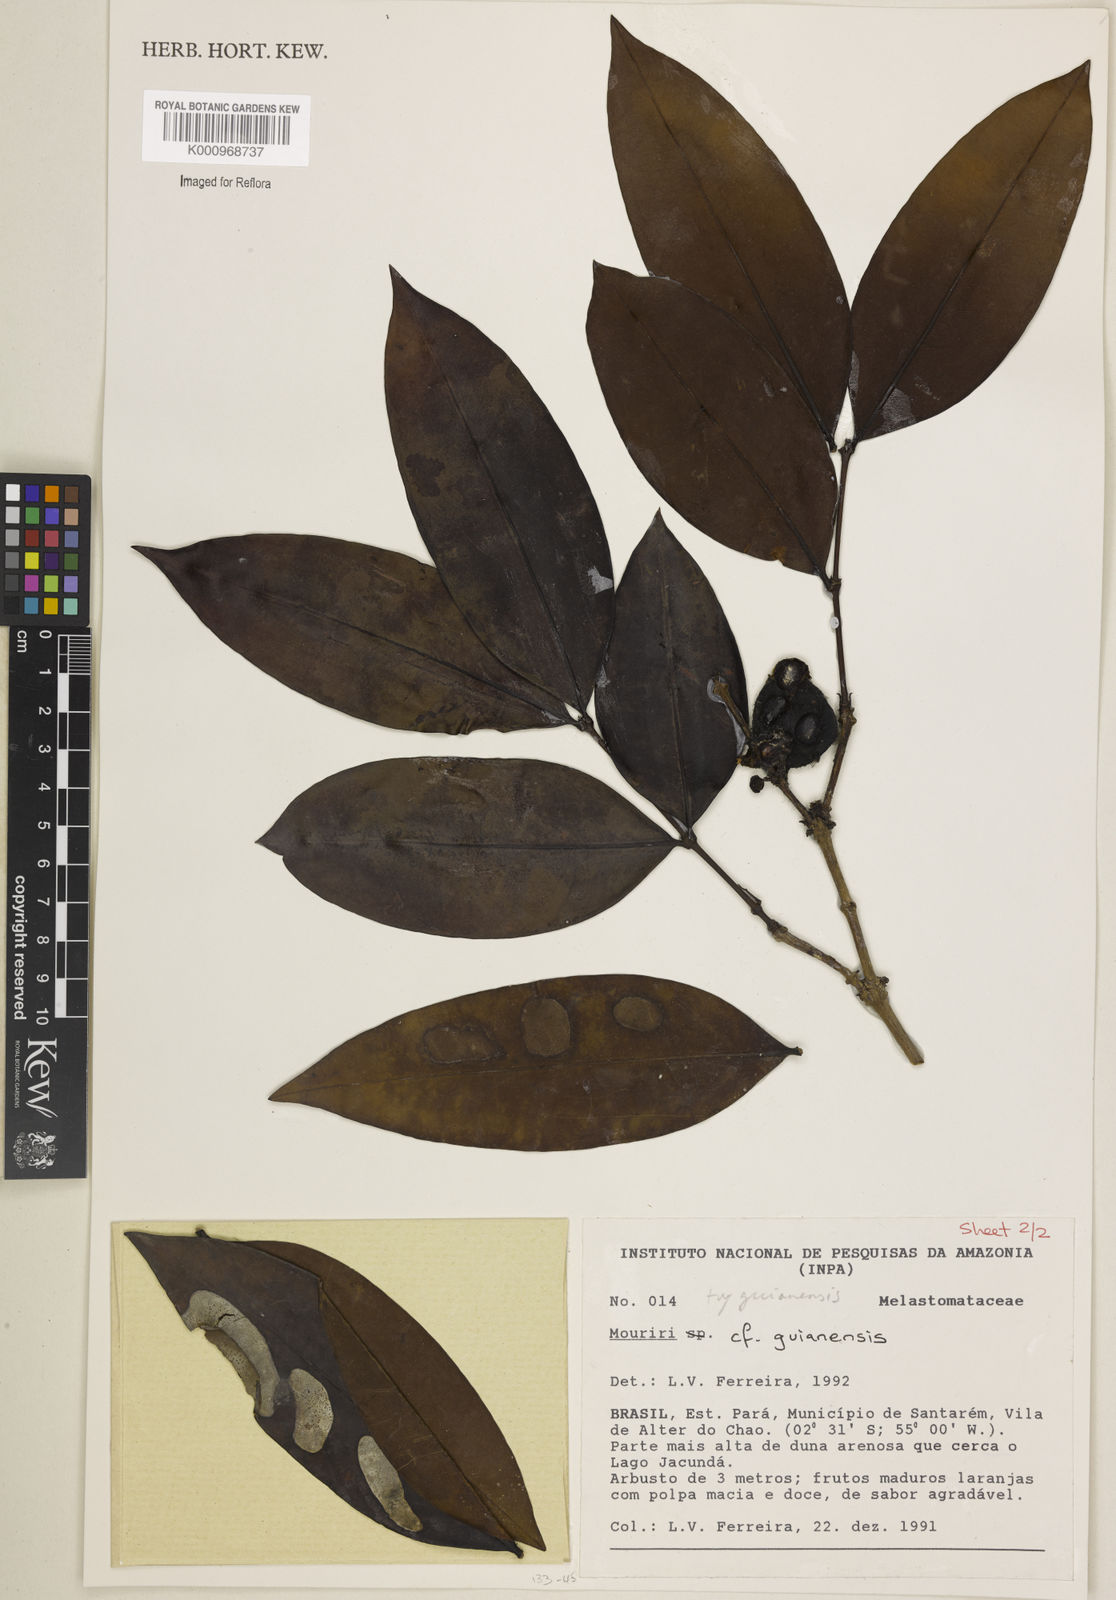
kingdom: Plantae
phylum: Tracheophyta
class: Magnoliopsida
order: Myrtales
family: Melastomataceae
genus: Mouriri
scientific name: Mouriri guianensis
